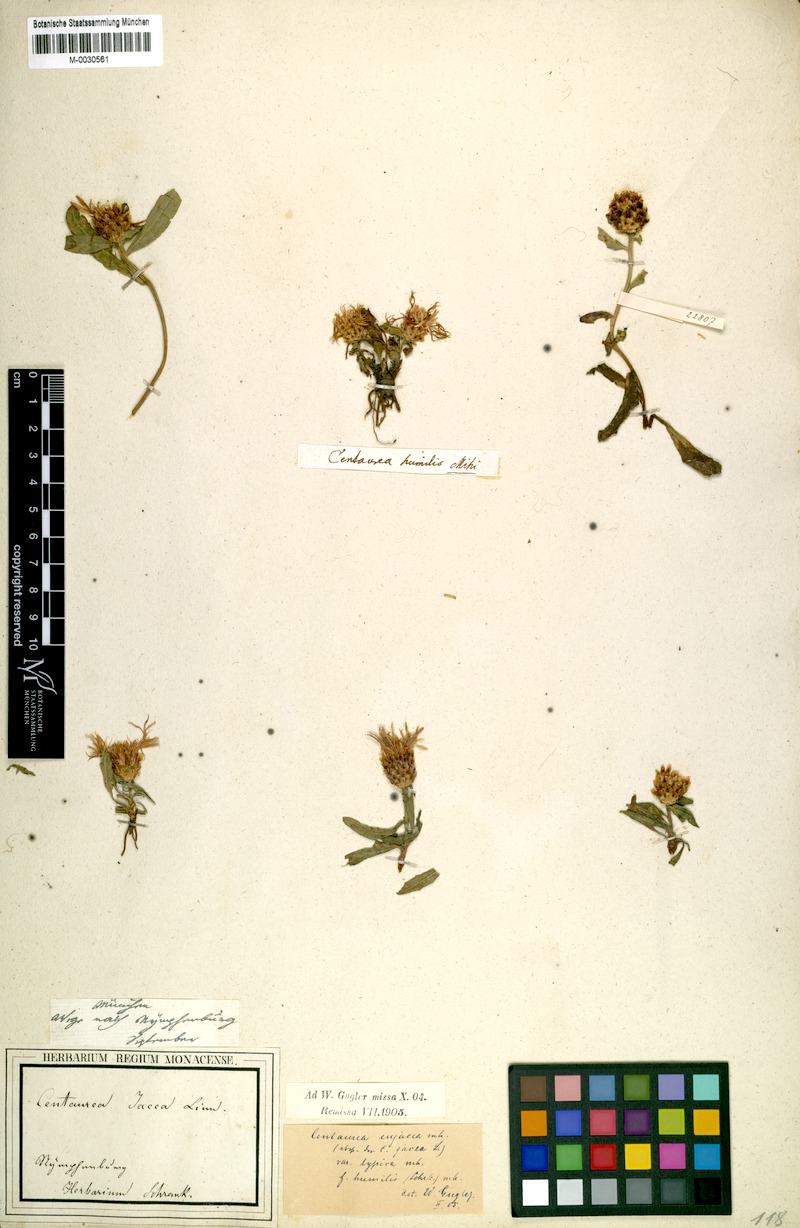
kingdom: Plantae
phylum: Tracheophyta
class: Magnoliopsida
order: Asterales
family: Asteraceae
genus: Centaurea
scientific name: Centaurea jacea
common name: Brown knapweed
